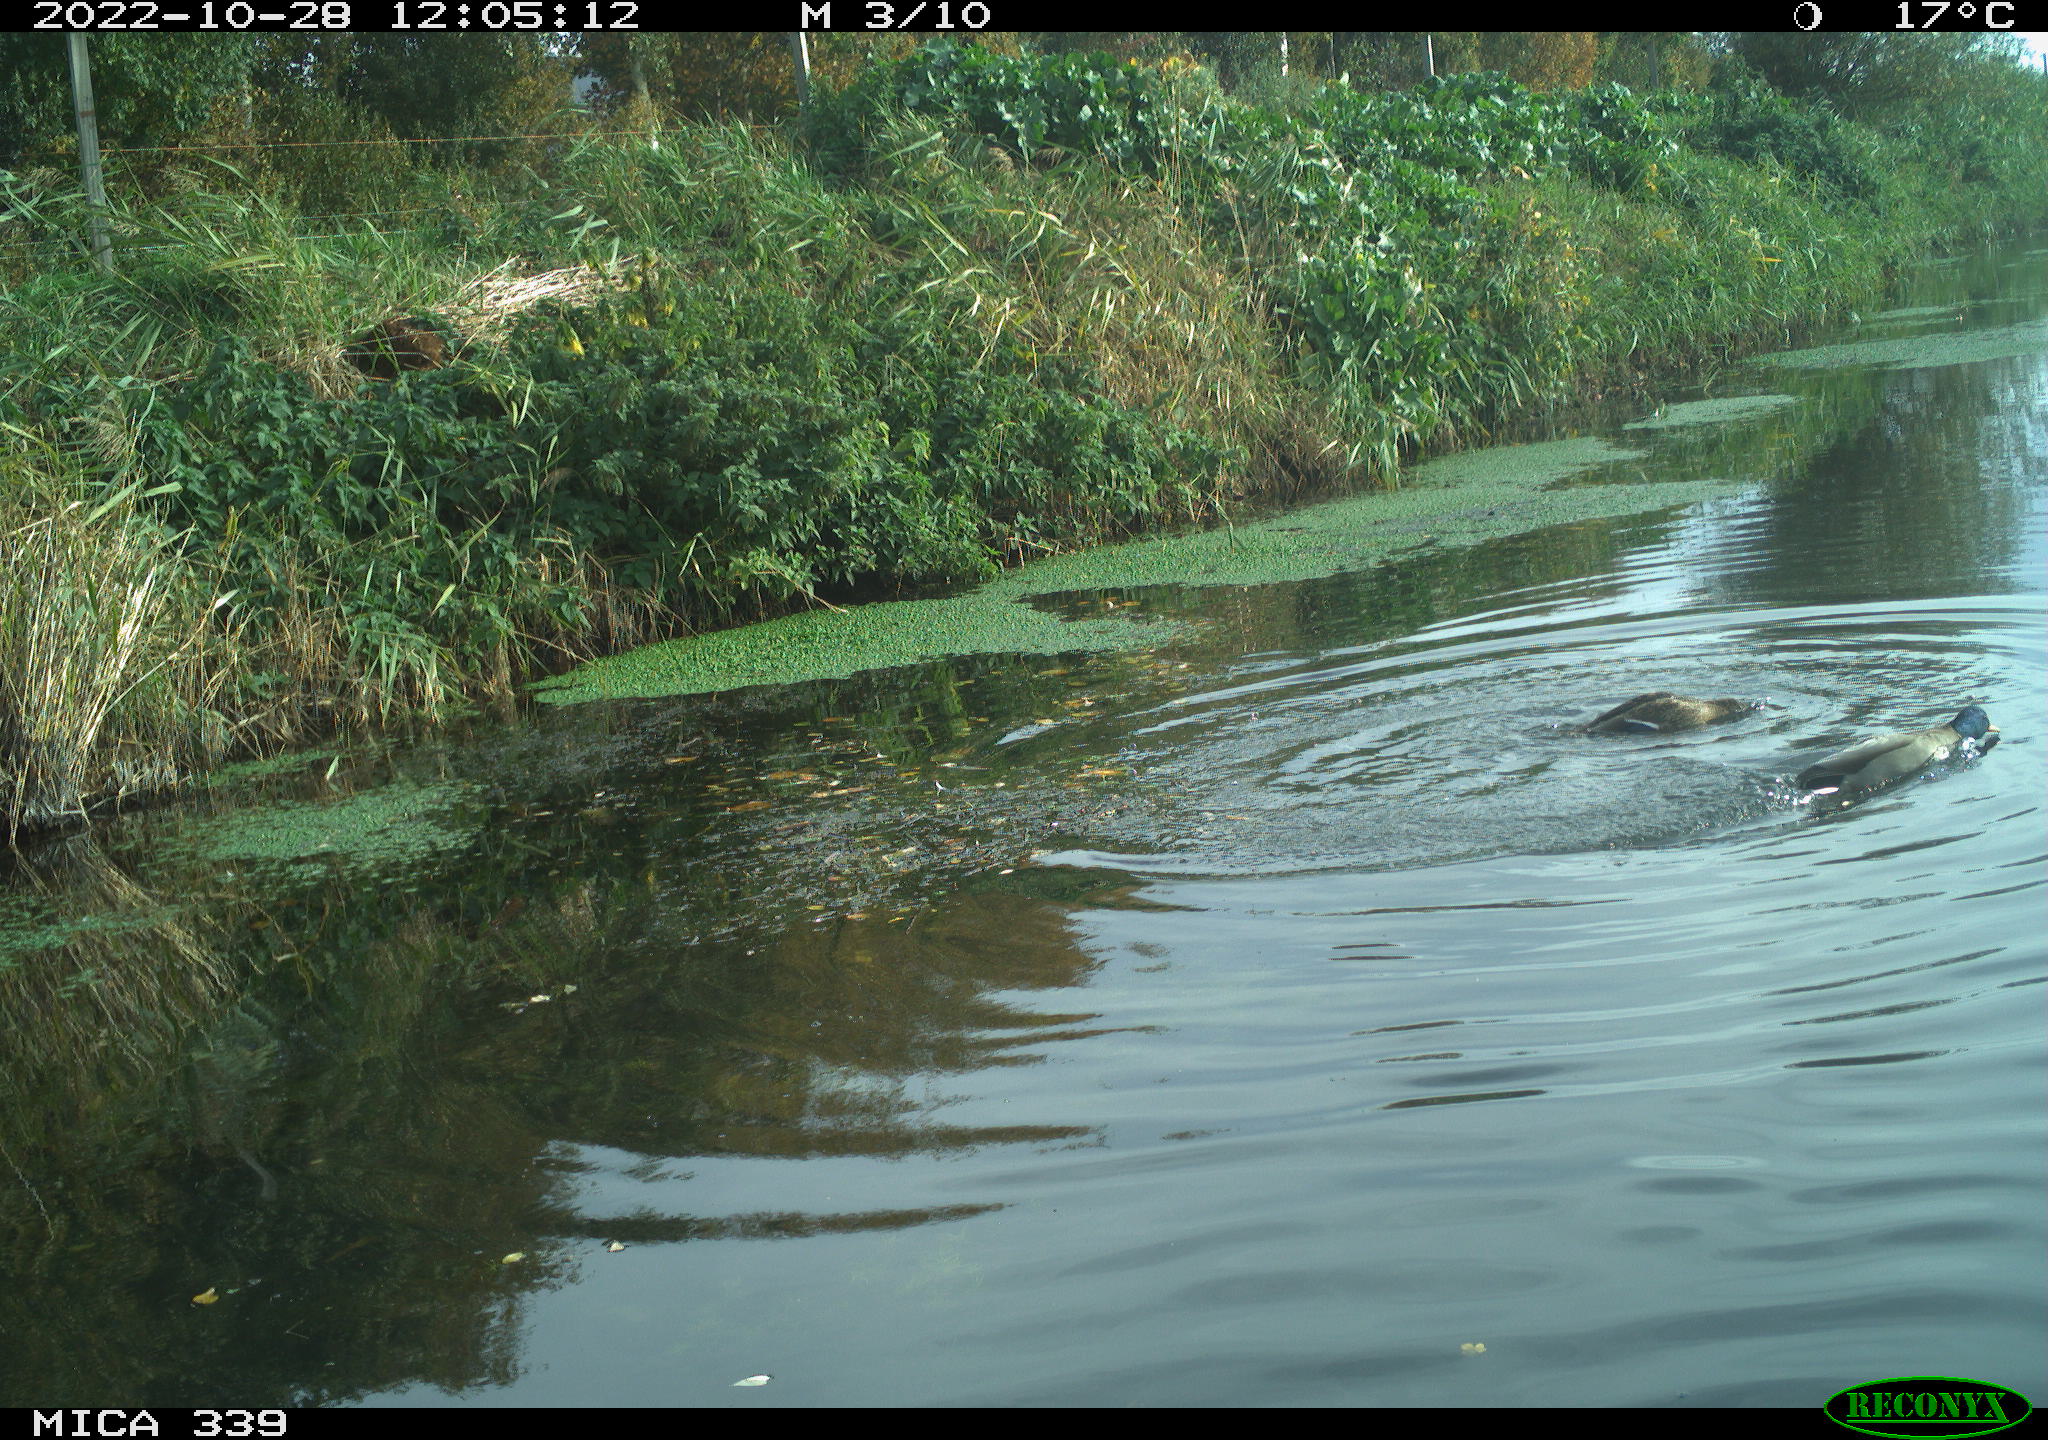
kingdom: Animalia
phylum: Chordata
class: Aves
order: Anseriformes
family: Anatidae
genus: Anas
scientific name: Anas platyrhynchos
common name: Mallard
